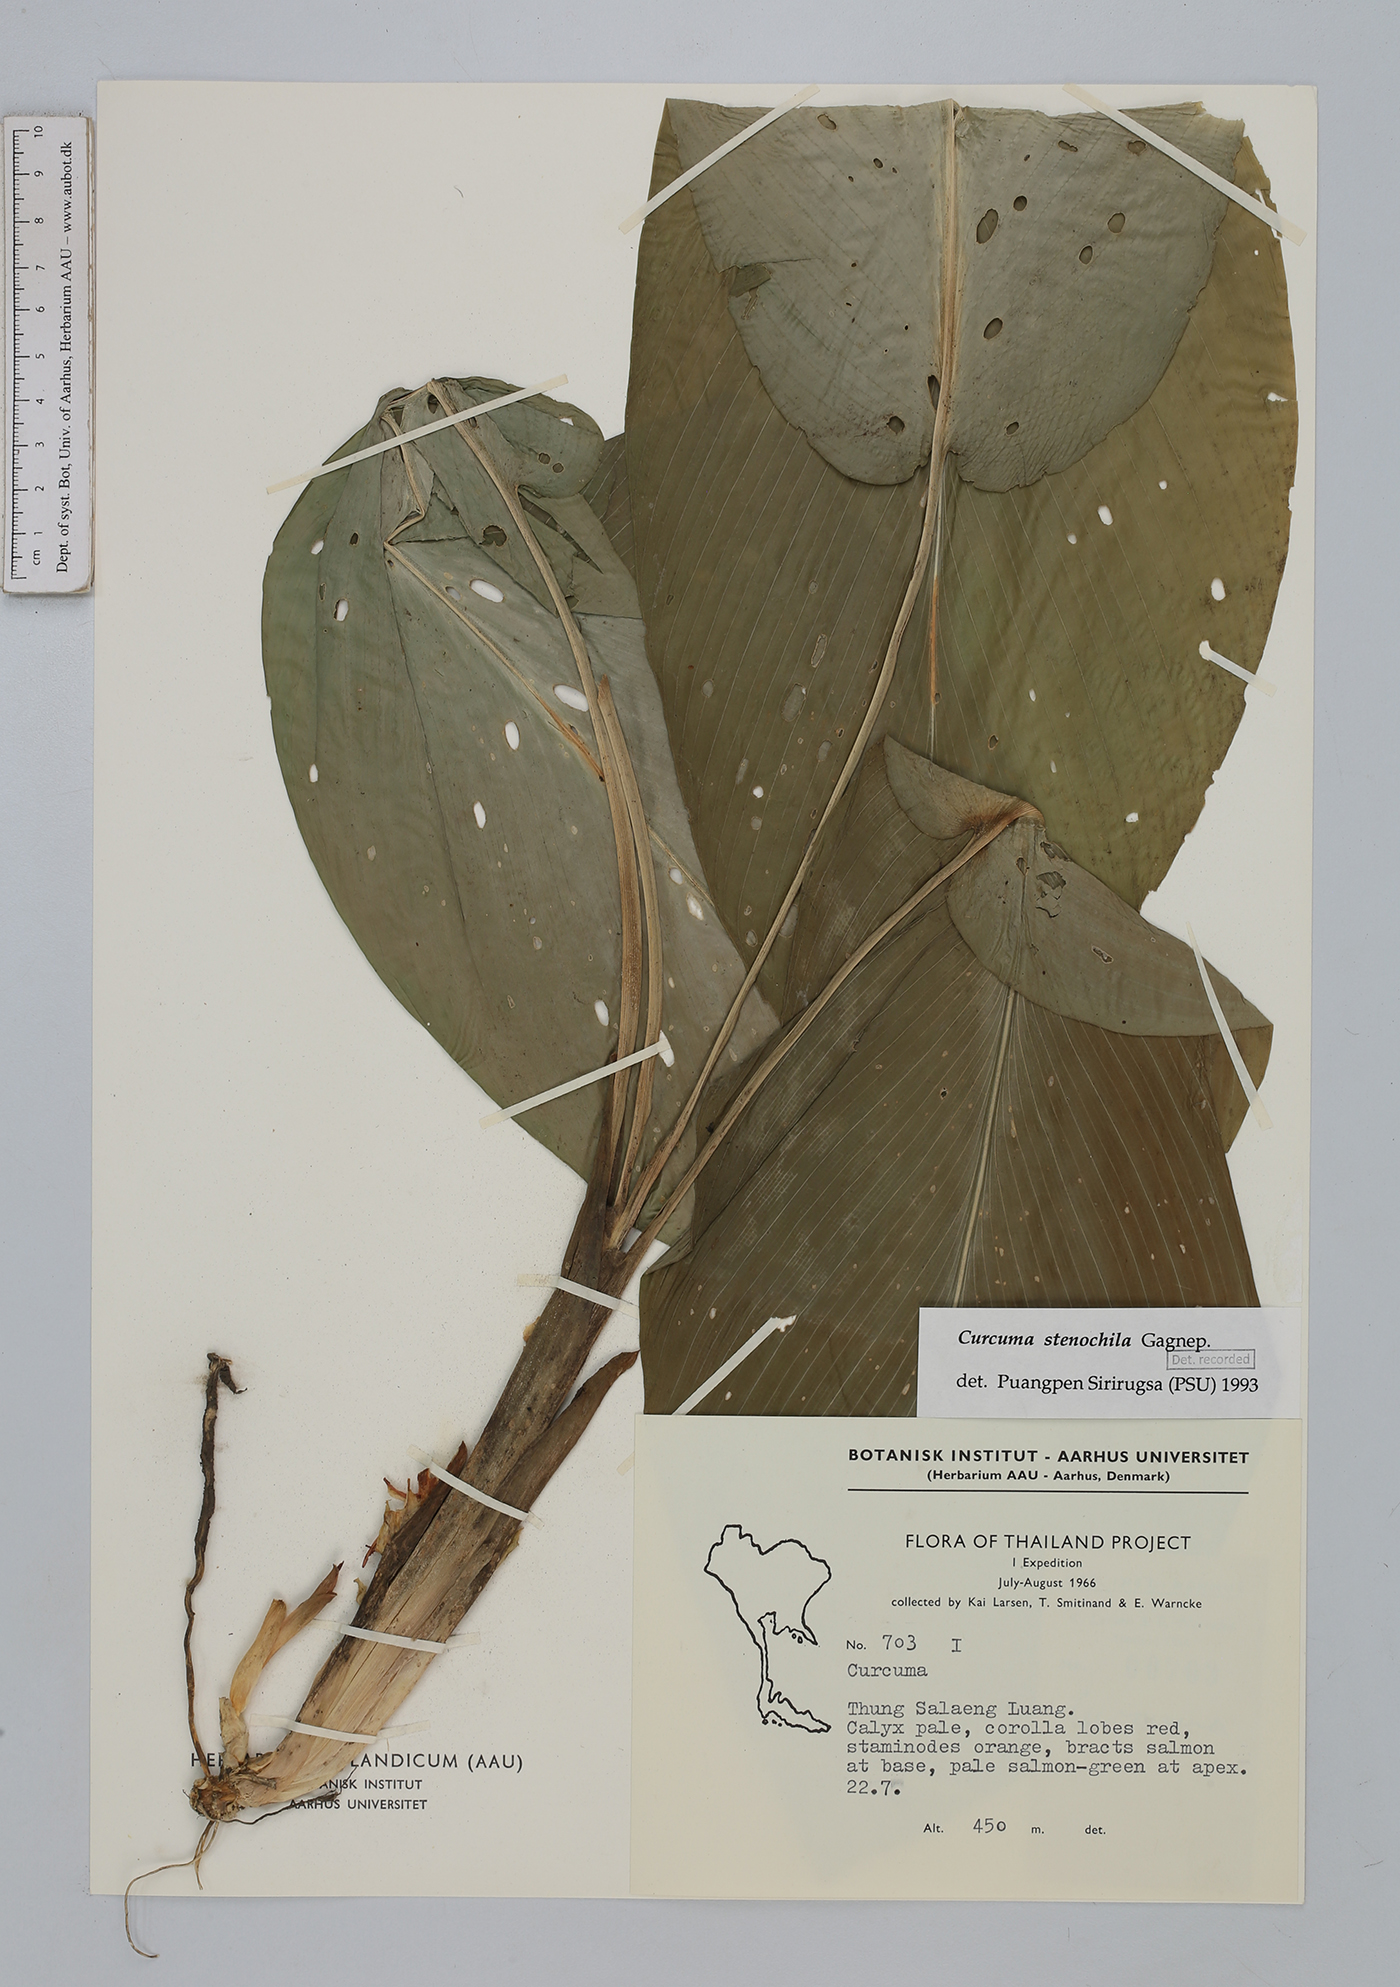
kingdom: Plantae
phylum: Tracheophyta
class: Liliopsida
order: Zingiberales
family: Zingiberaceae
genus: Curcuma
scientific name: Curcuma stenochila
